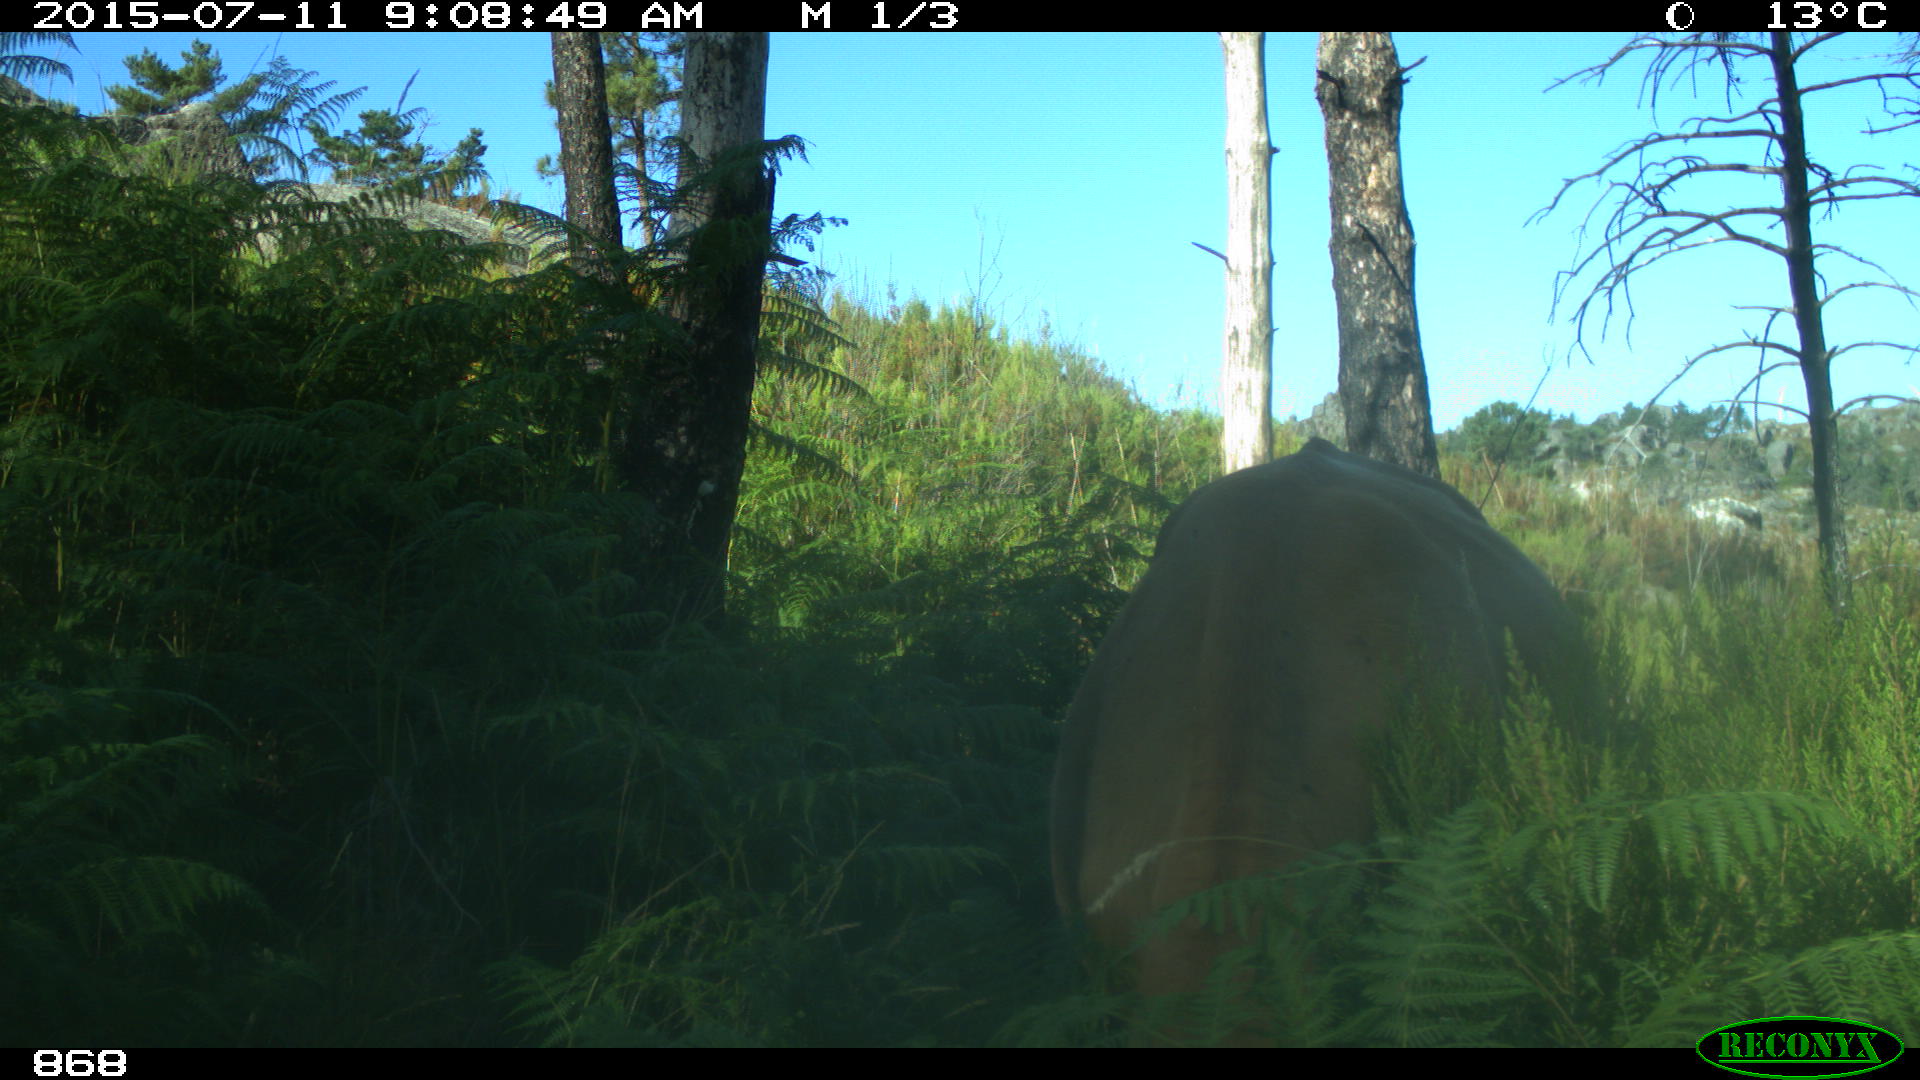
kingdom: Animalia
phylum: Chordata
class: Mammalia
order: Artiodactyla
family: Bovidae
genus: Bos
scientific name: Bos taurus
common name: Domesticated cattle
